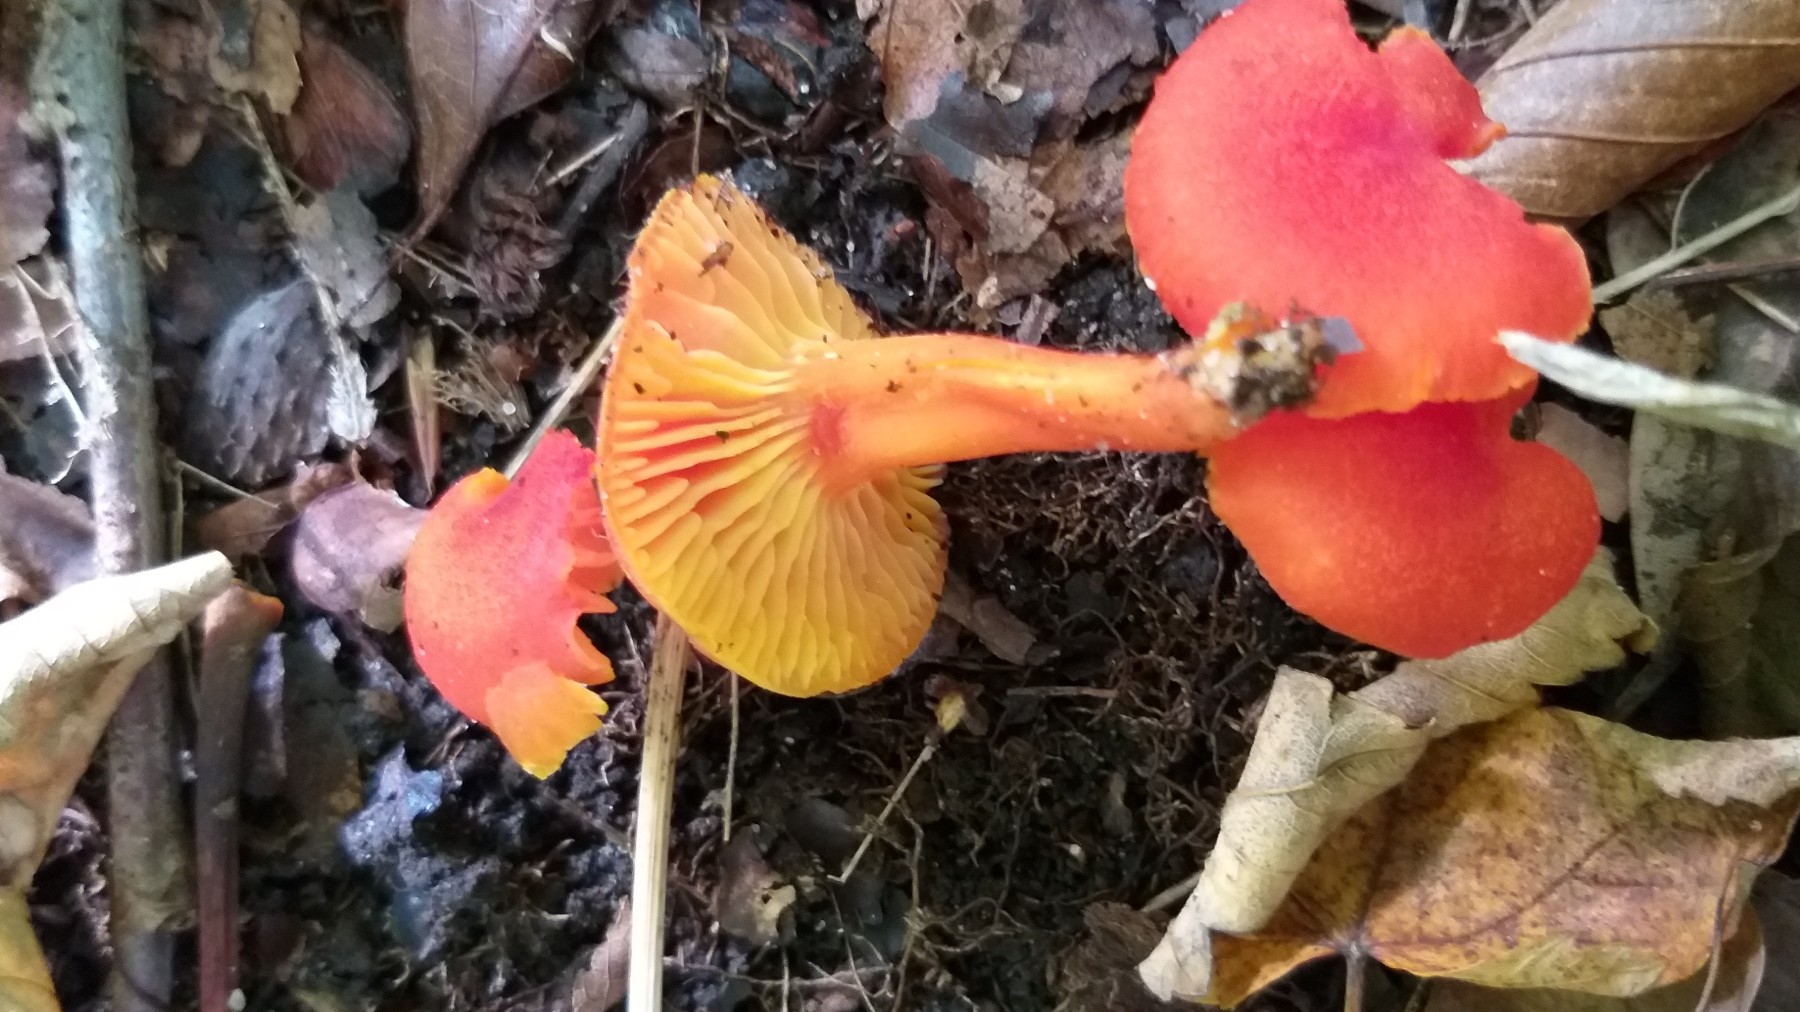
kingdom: Fungi
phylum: Basidiomycota
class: Agaricomycetes
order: Agaricales
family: Hygrophoraceae
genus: Hygrocybe
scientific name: Hygrocybe miniata
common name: mønje-vokshat
